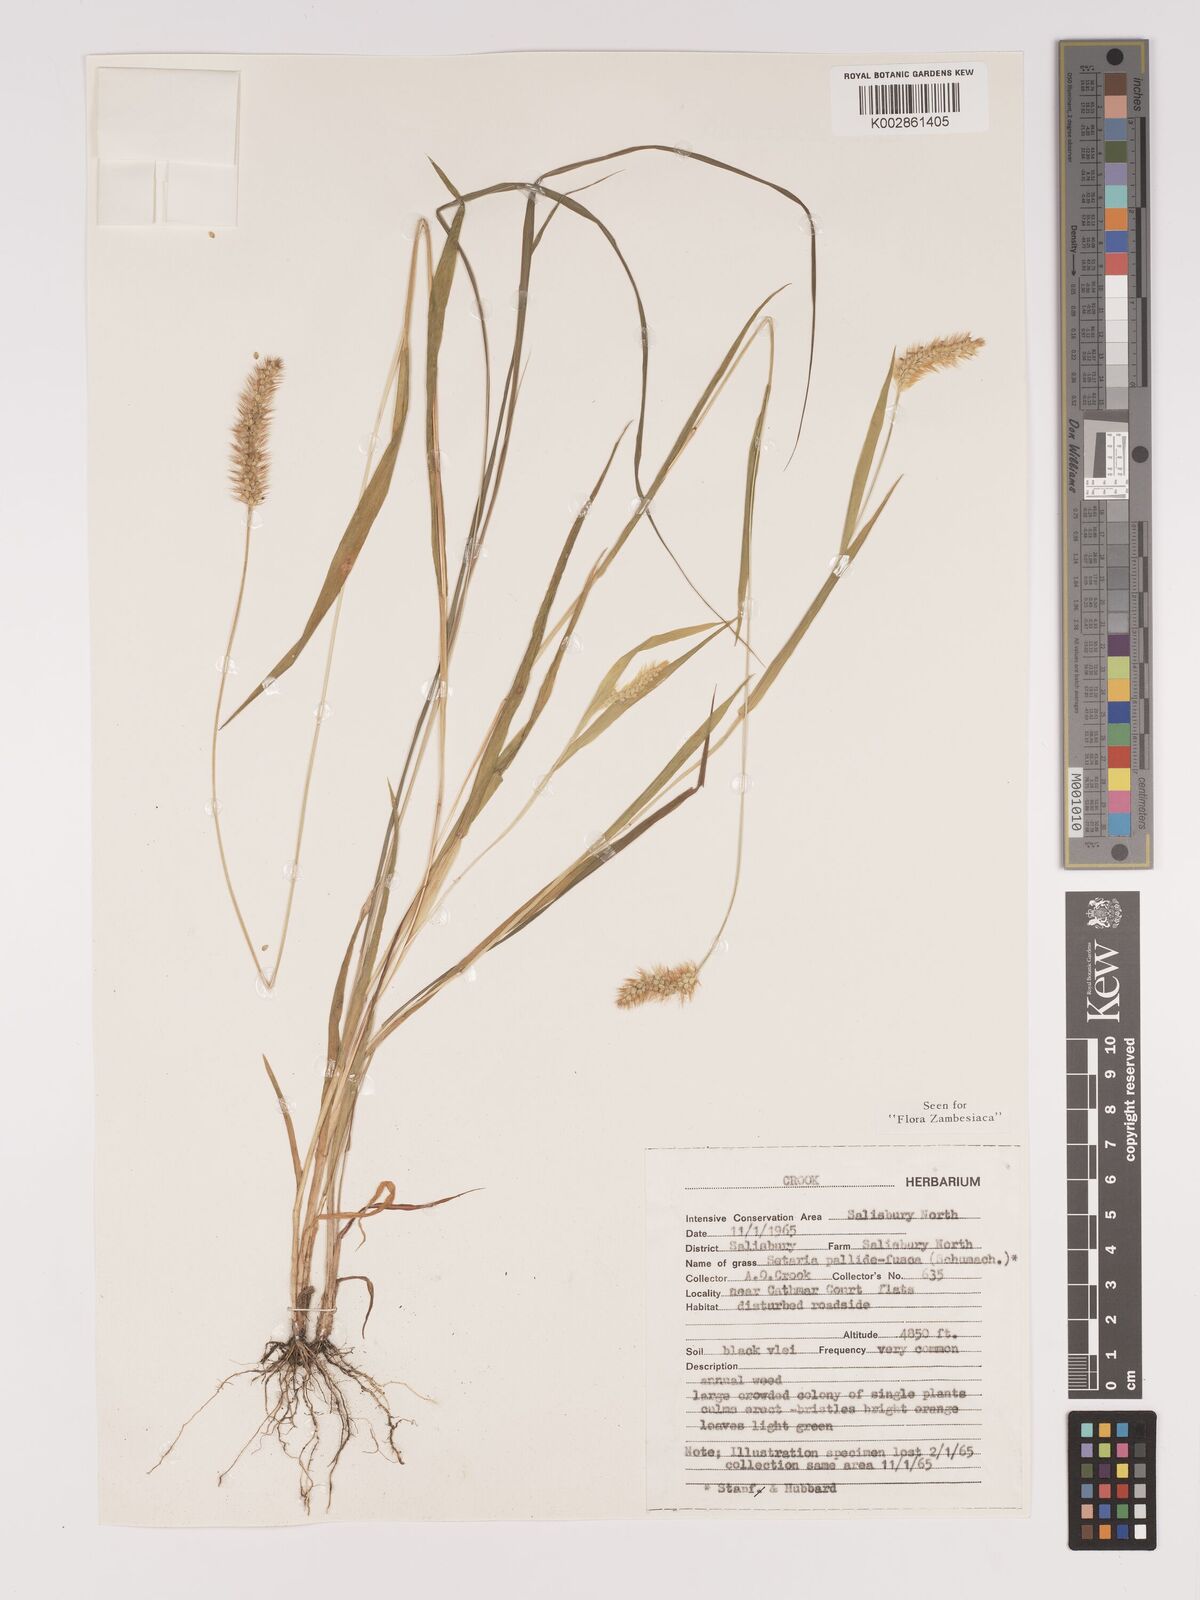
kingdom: Plantae
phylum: Tracheophyta
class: Liliopsida
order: Poales
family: Poaceae
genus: Setaria
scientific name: Setaria pumila
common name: Yellow bristle-grass
